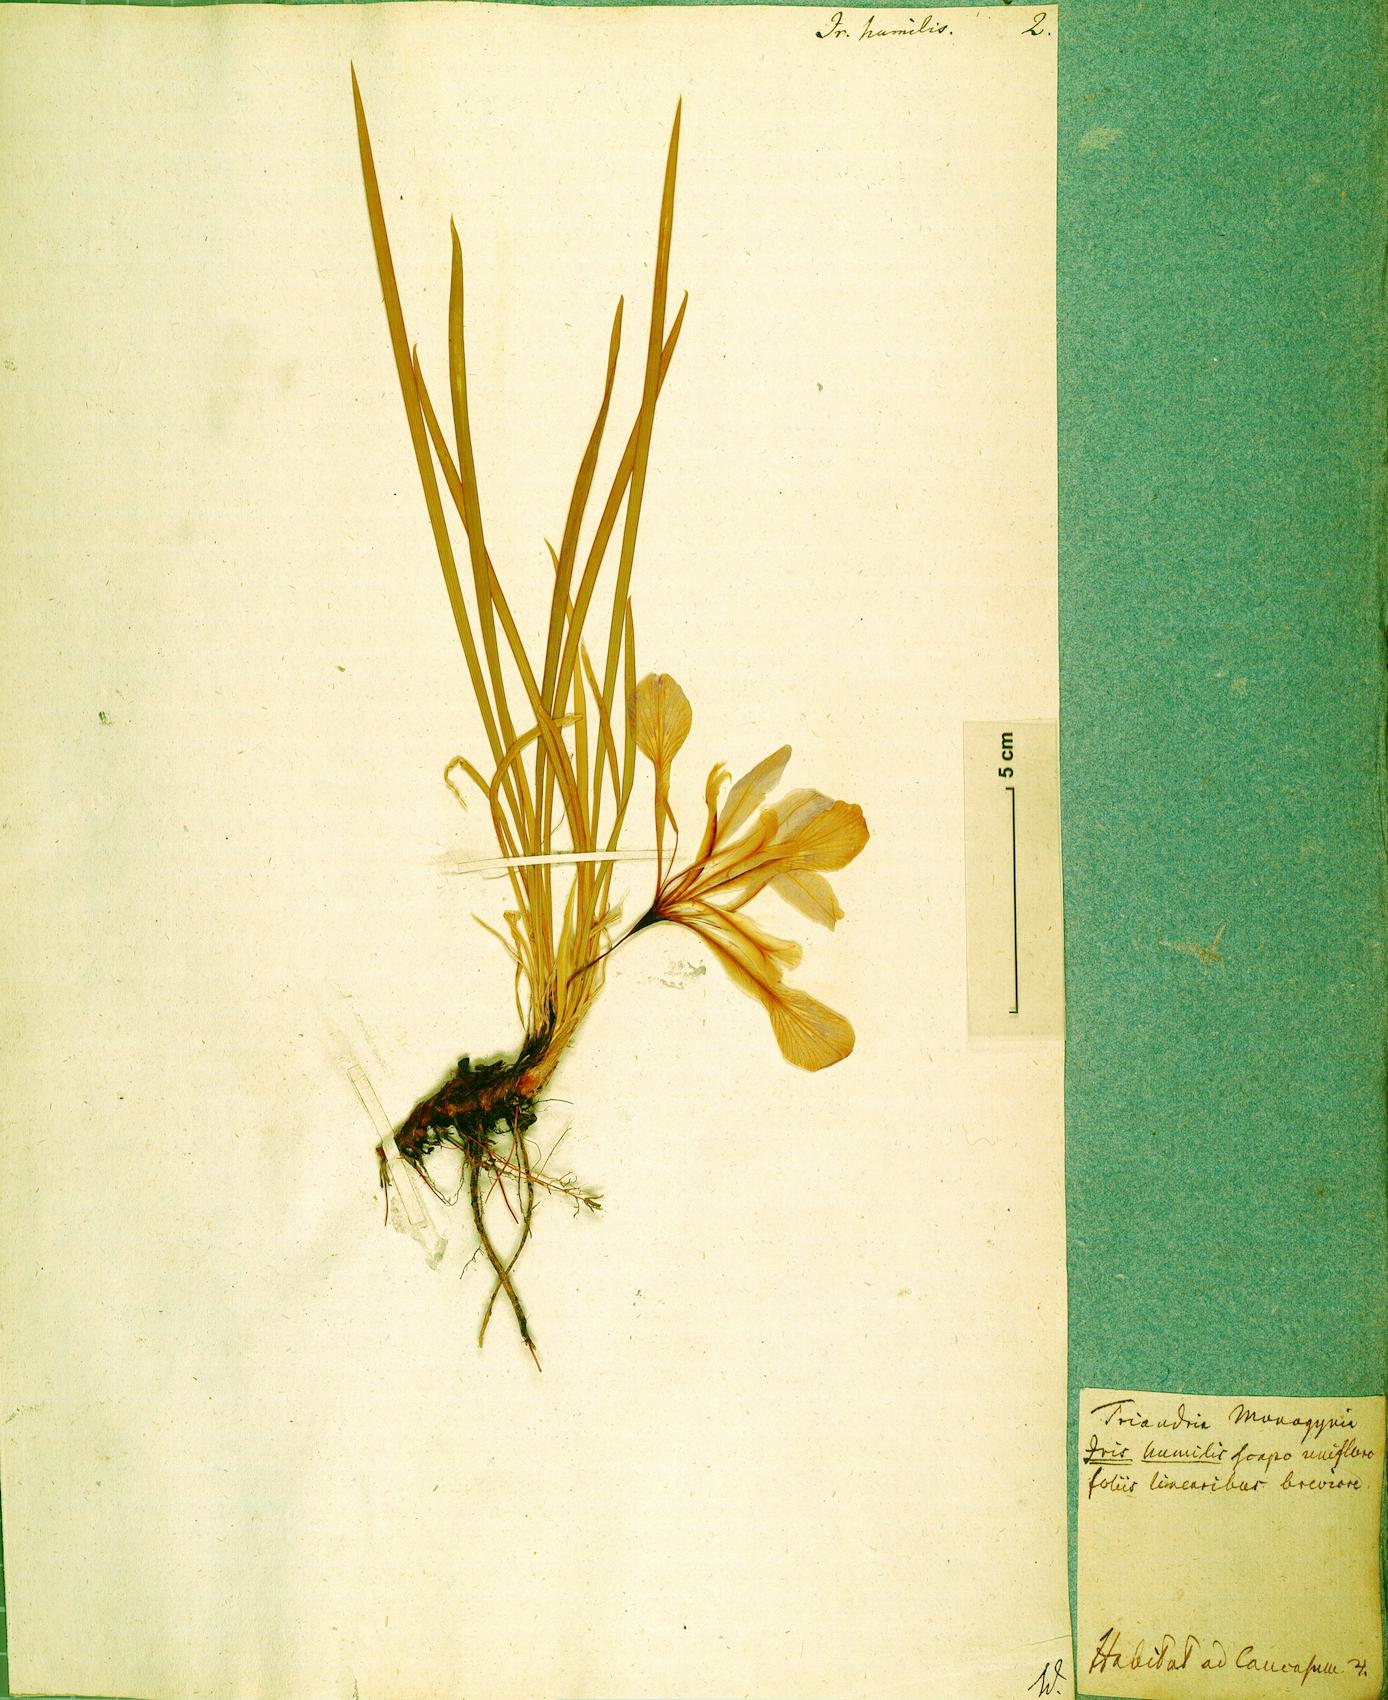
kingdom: Plantae
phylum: Tracheophyta
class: Liliopsida
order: Asparagales
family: Iridaceae
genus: Iris
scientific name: Iris pontica
